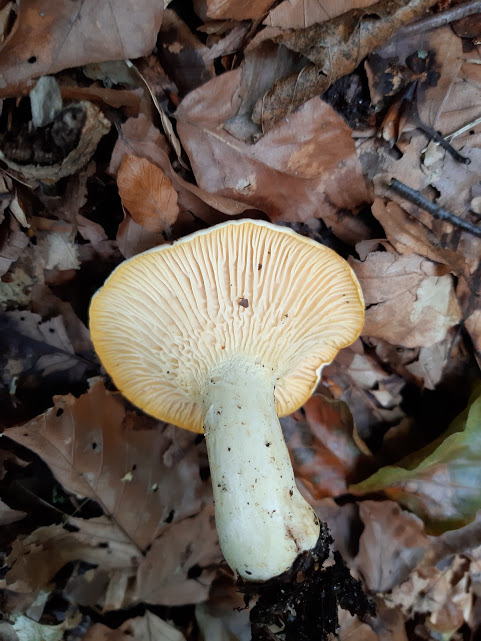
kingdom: Fungi
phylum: Basidiomycota
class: Agaricomycetes
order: Cantharellales
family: Hydnaceae
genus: Cantharellus
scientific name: Cantharellus amethysteus
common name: ametyst-kantarel
